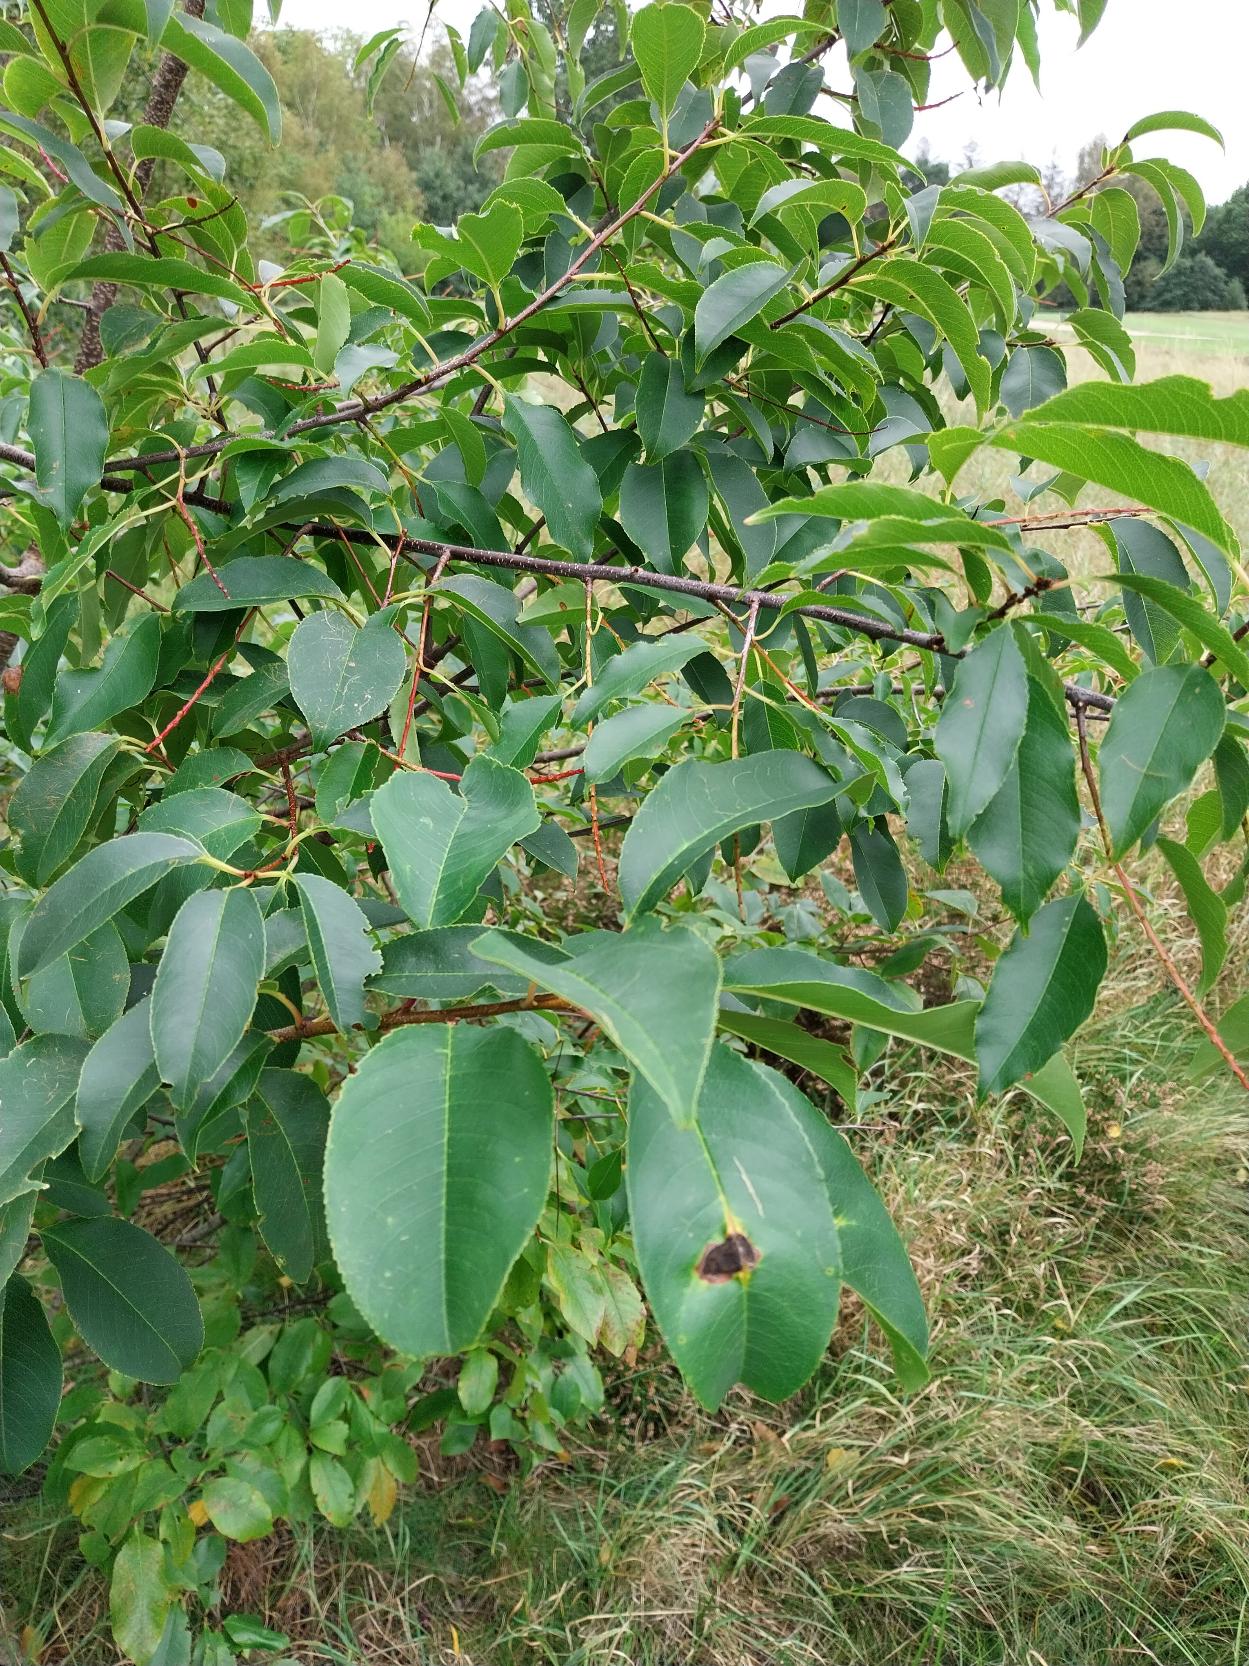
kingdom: Plantae
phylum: Tracheophyta
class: Magnoliopsida
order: Rosales
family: Rosaceae
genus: Prunus
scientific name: Prunus serotina
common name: Glansbladet hæg
